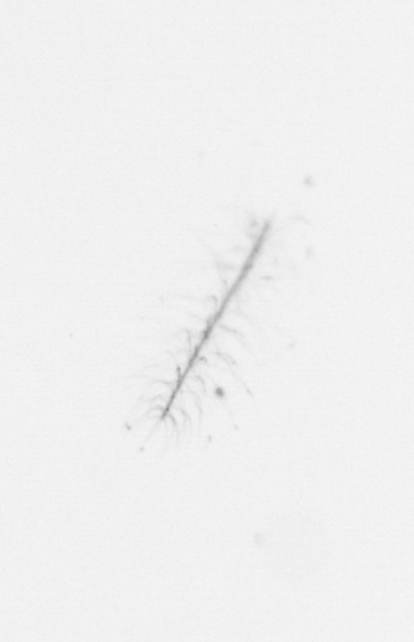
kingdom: Chromista
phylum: Ochrophyta
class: Bacillariophyceae
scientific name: Bacillariophyceae
